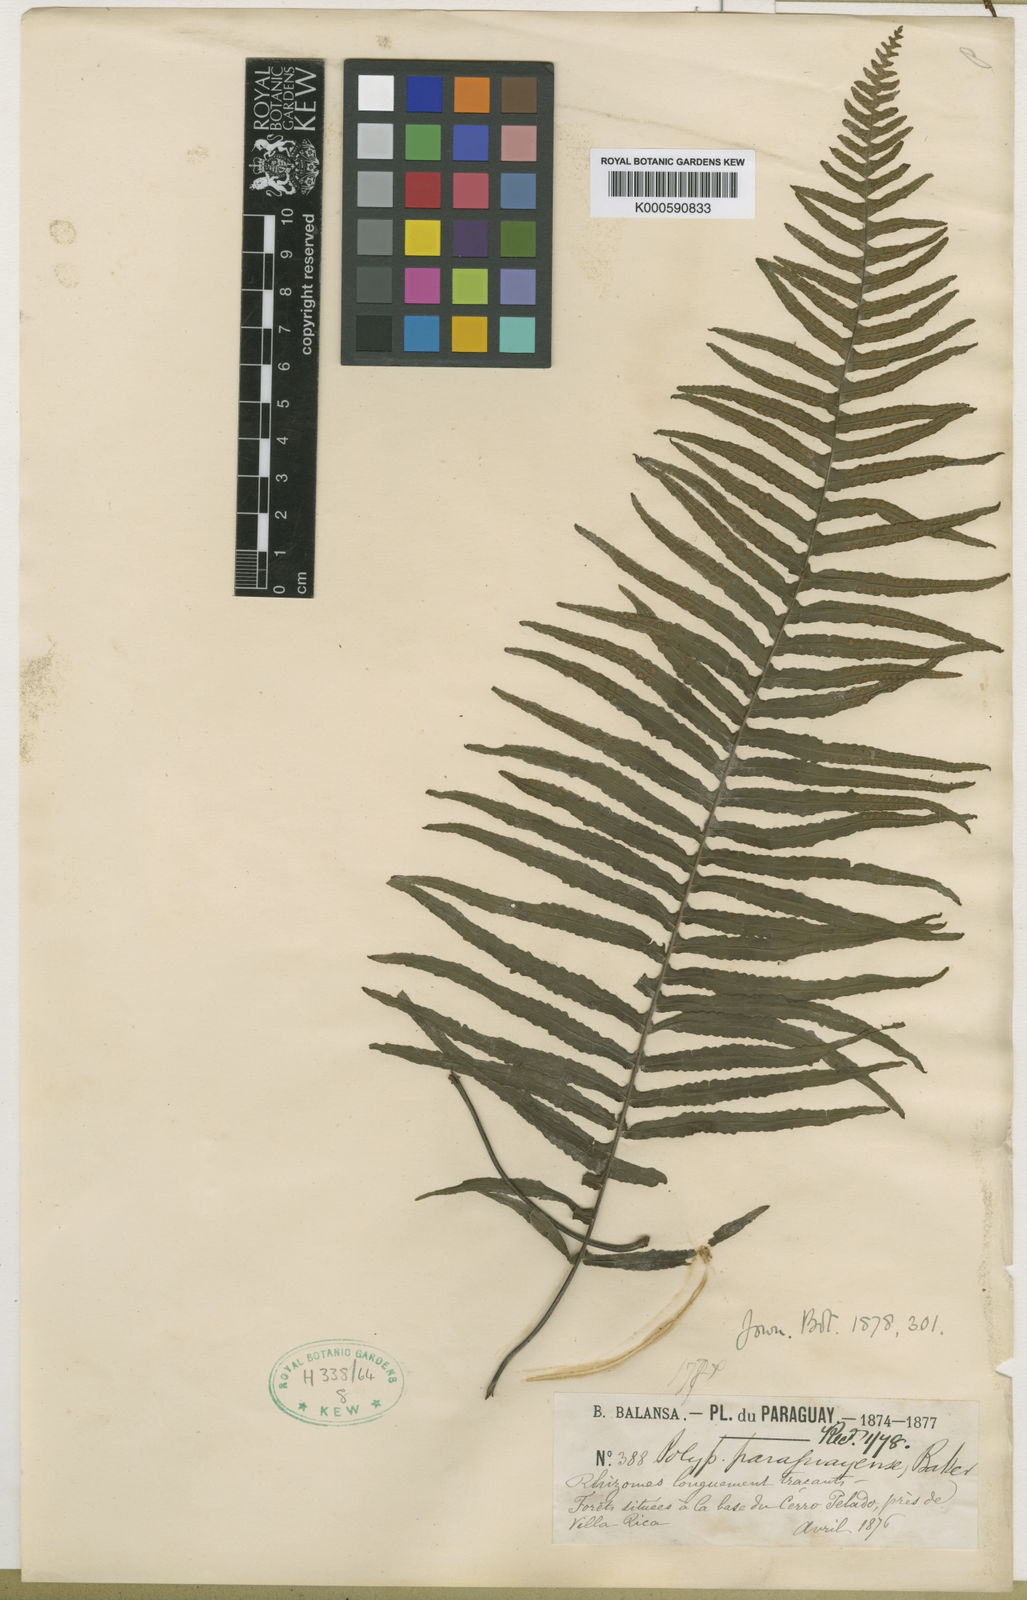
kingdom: Plantae
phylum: Tracheophyta
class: Polypodiopsida
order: Polypodiales
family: Polypodiaceae
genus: Pecluma
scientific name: Pecluma recurvata
